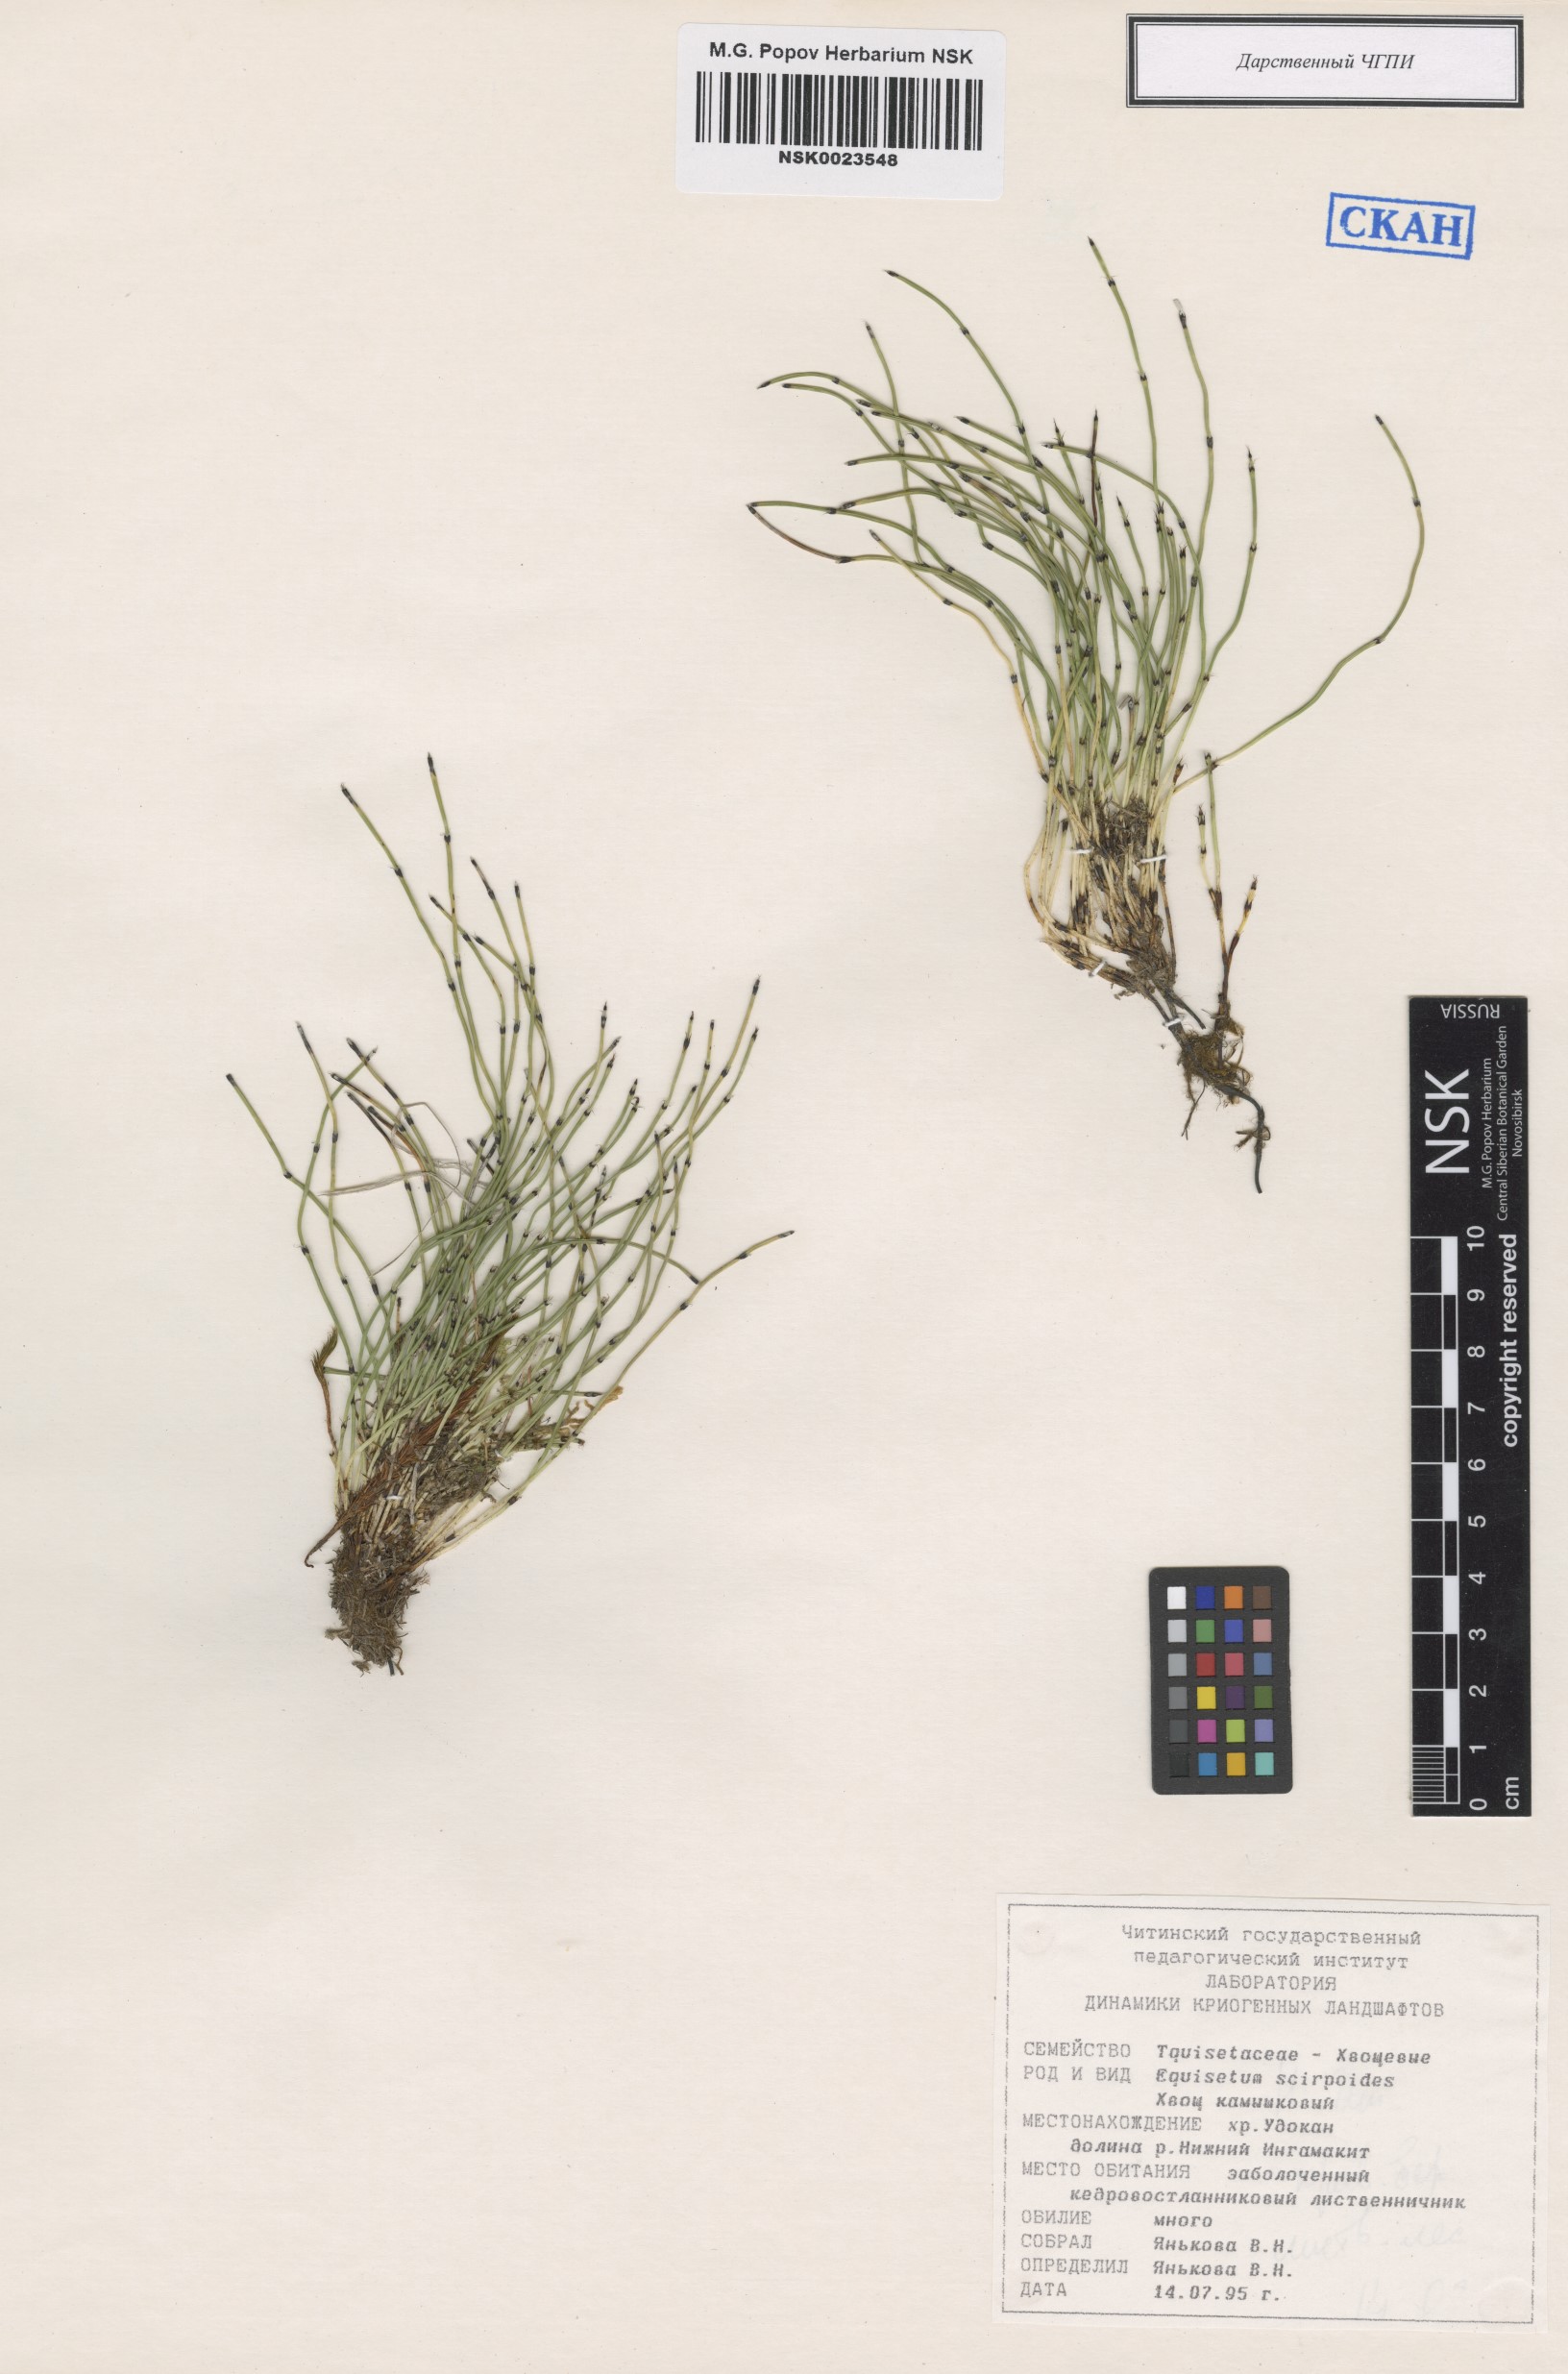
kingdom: Plantae
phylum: Tracheophyta
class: Polypodiopsida
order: Equisetales
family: Equisetaceae
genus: Equisetum
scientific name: Equisetum scirpoides
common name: Delicate horsetail
